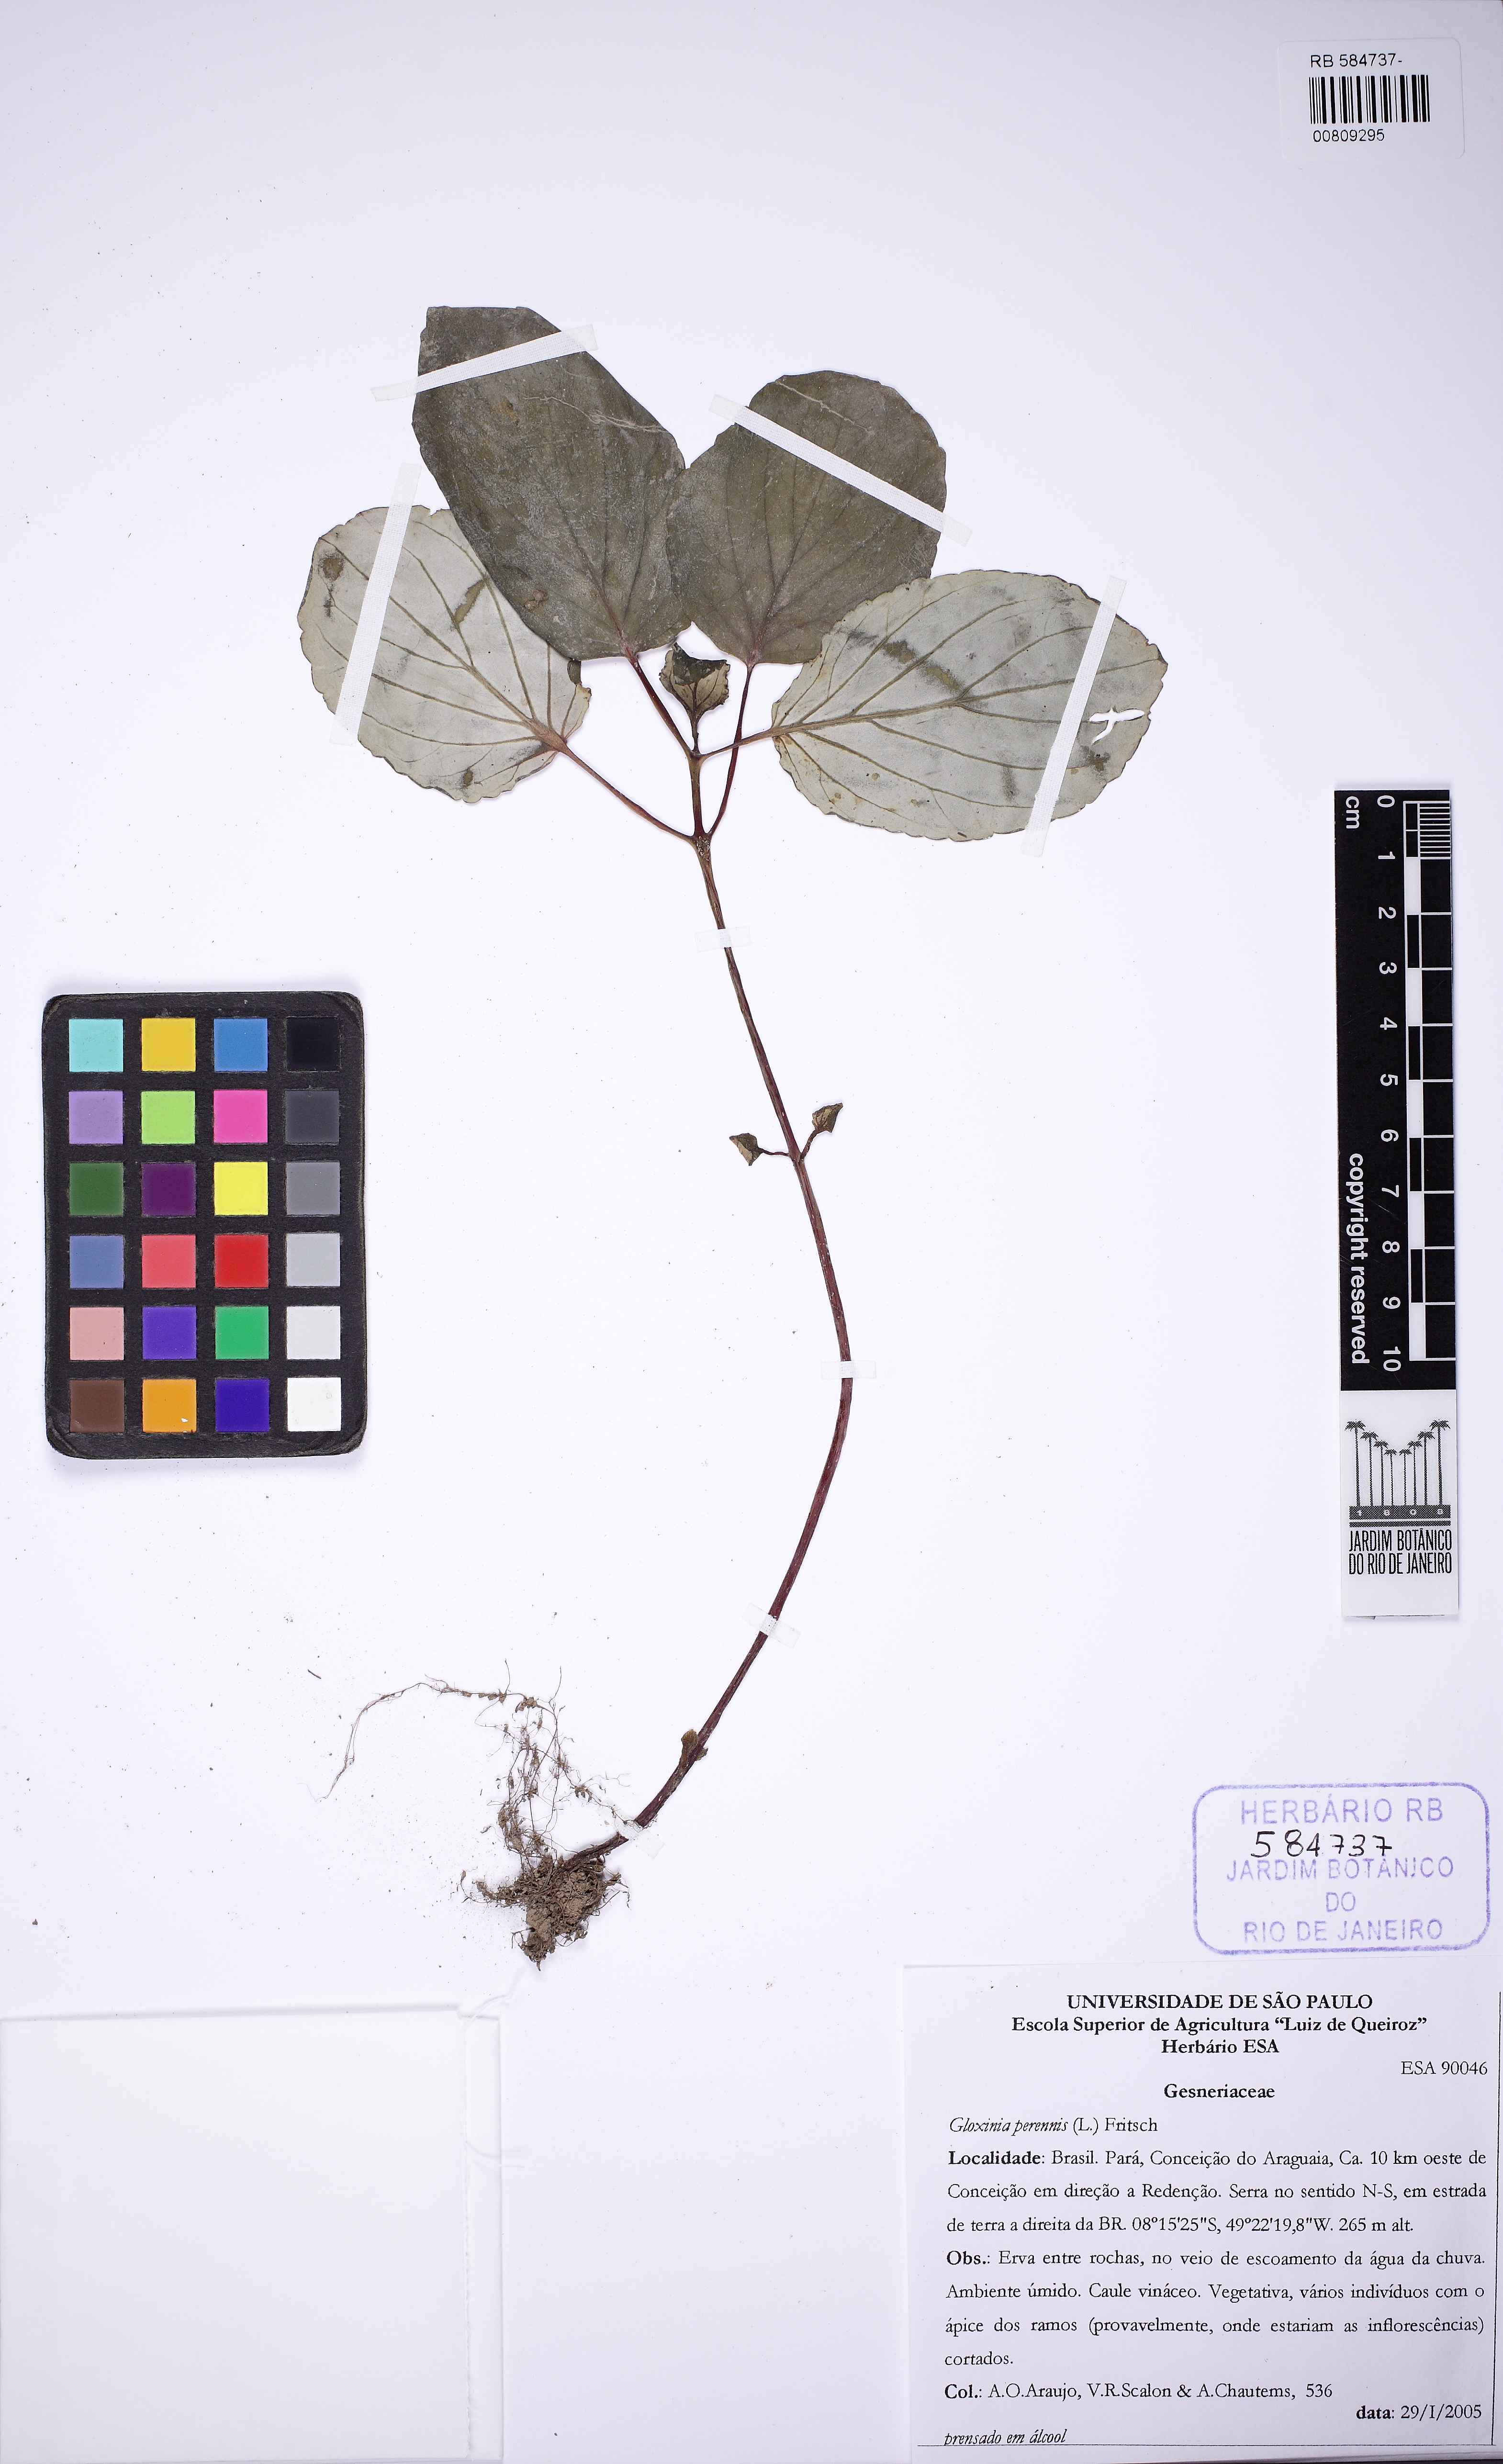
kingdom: Plantae
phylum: Tracheophyta
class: Magnoliopsida
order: Lamiales
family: Gesneriaceae
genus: Gloxinia
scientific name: Gloxinia perennis
